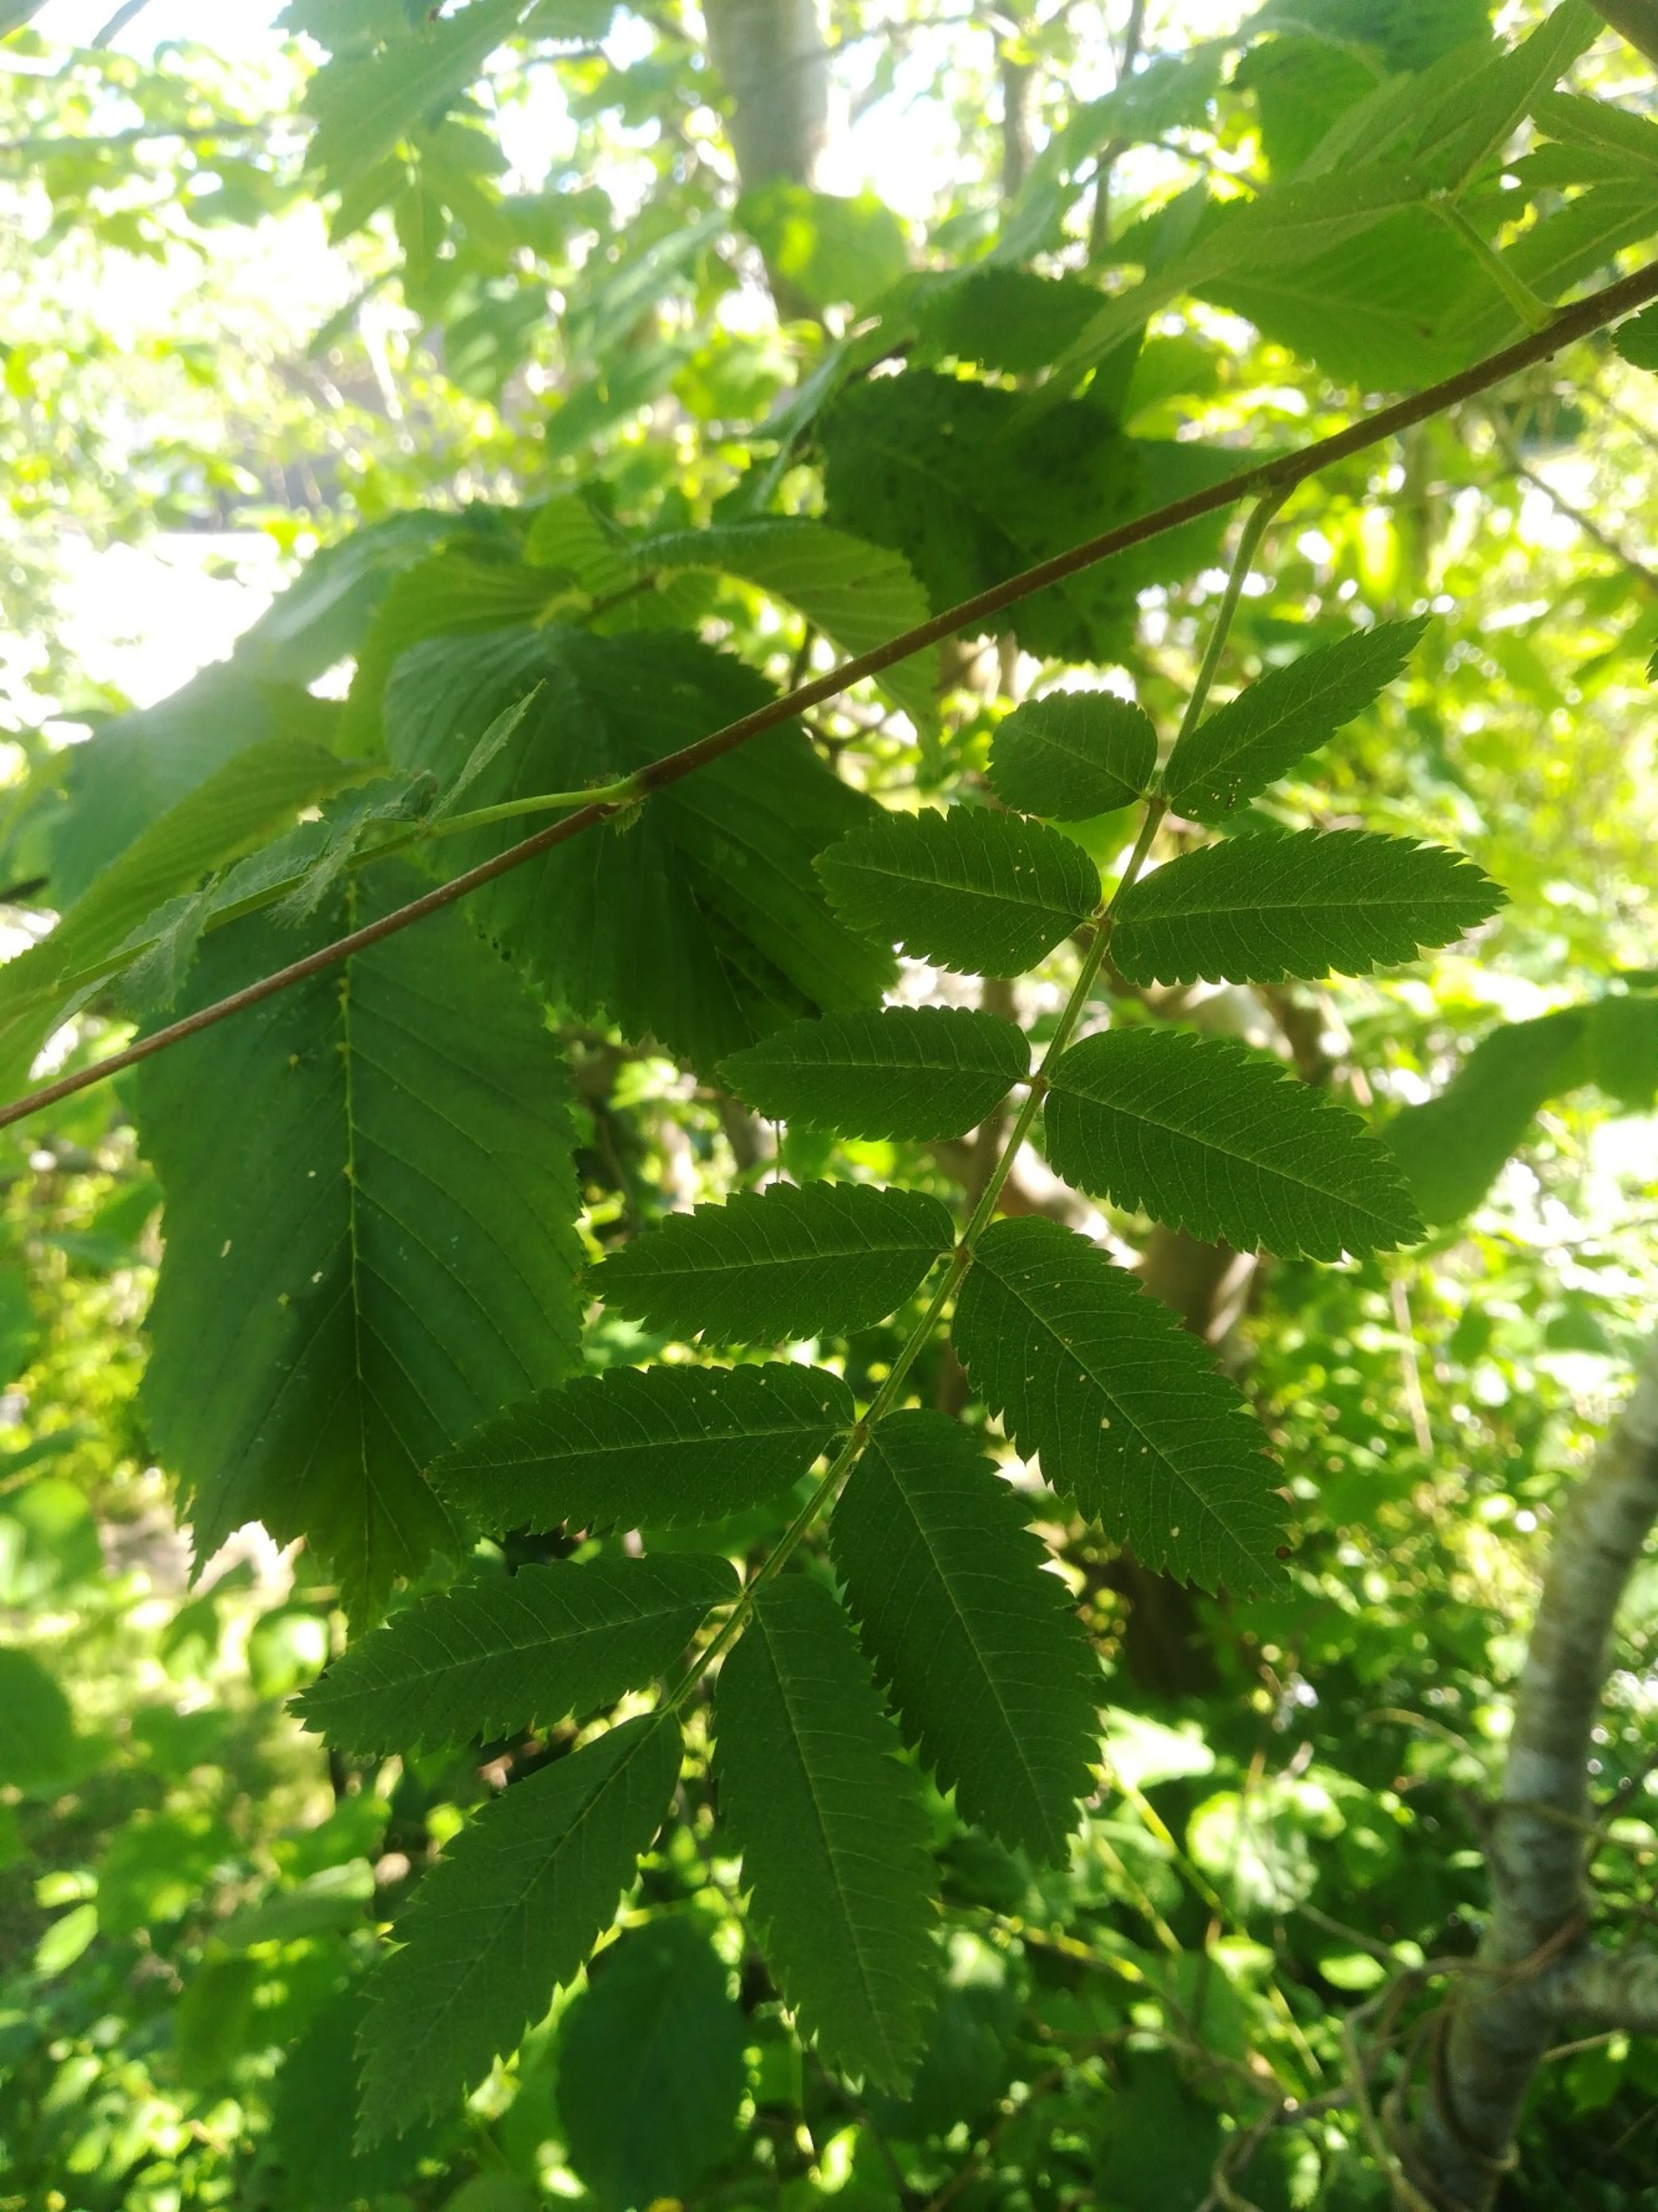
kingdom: Plantae
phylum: Tracheophyta
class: Magnoliopsida
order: Rosales
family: Rosaceae
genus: Sorbus
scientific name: Sorbus aucuparia
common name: Almindelig røn
